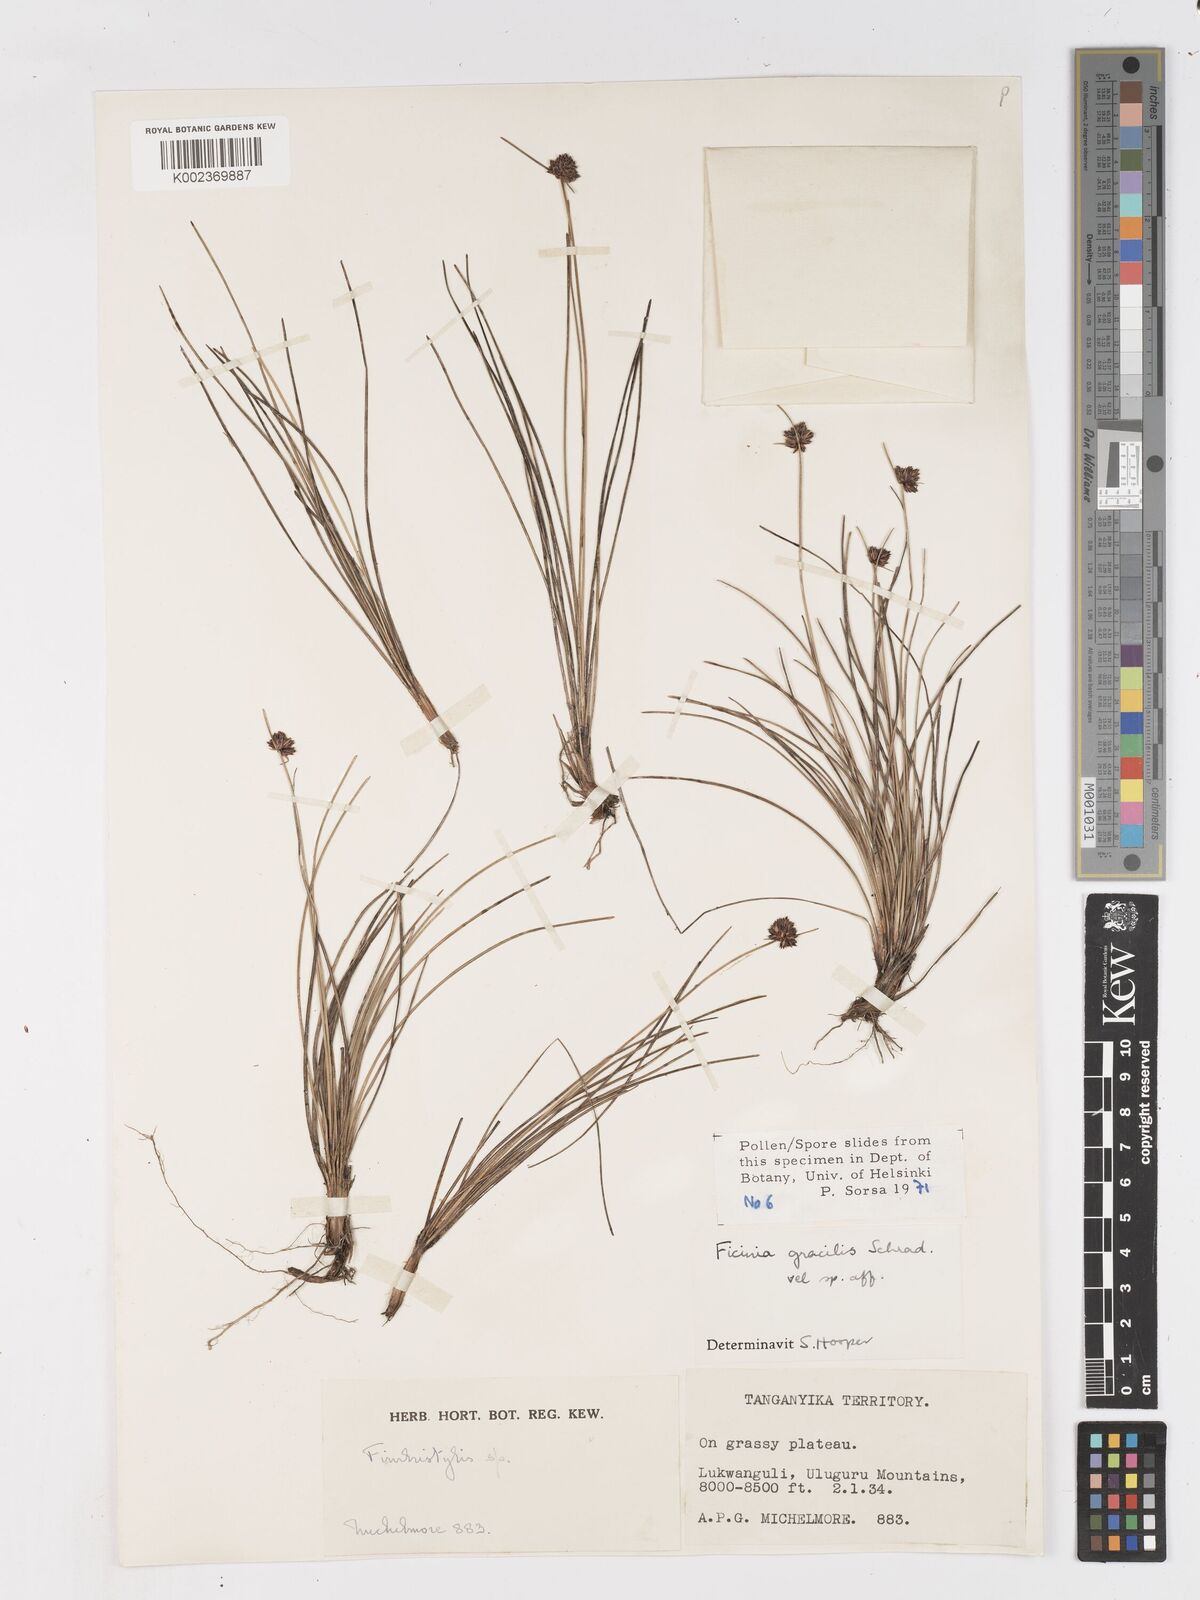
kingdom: Plantae
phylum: Tracheophyta
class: Liliopsida
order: Poales
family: Cyperaceae
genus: Ficinia
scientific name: Ficinia gracilis
